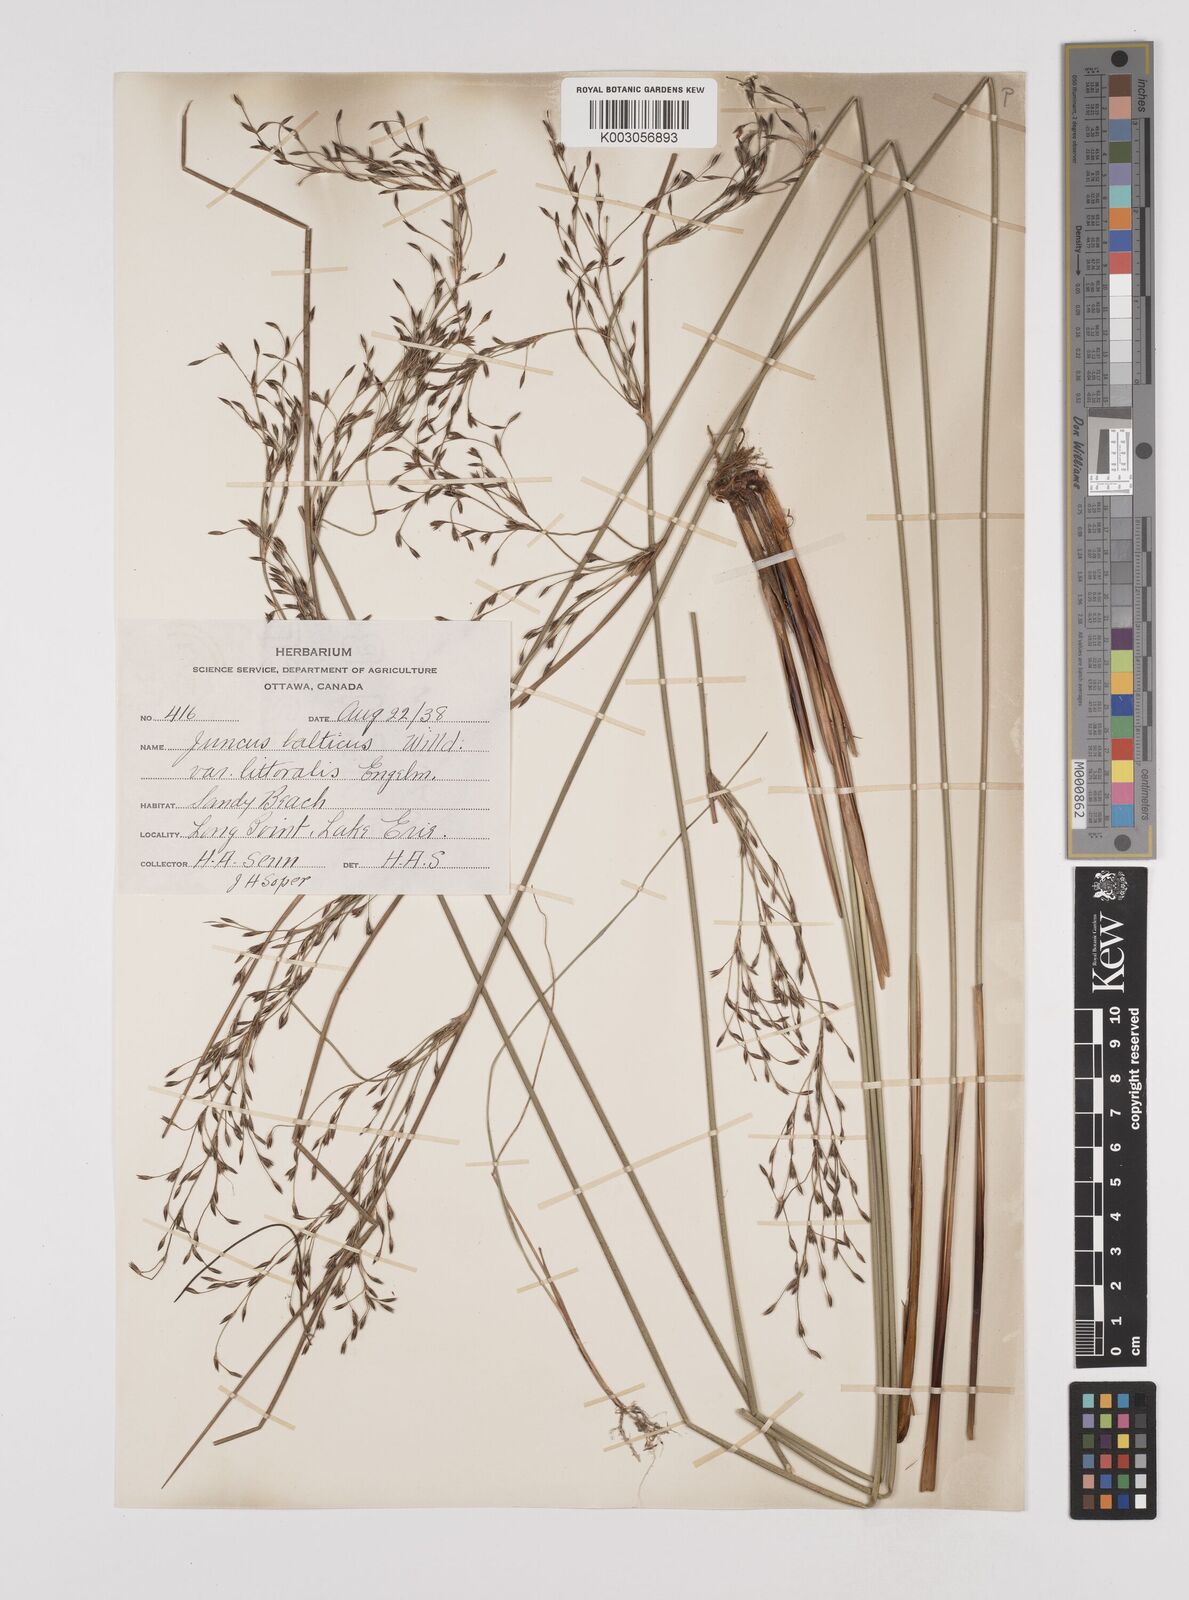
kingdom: Plantae
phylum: Tracheophyta
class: Liliopsida
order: Poales
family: Juncaceae
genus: Juncus
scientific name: Juncus balticus
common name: Baltic rush
